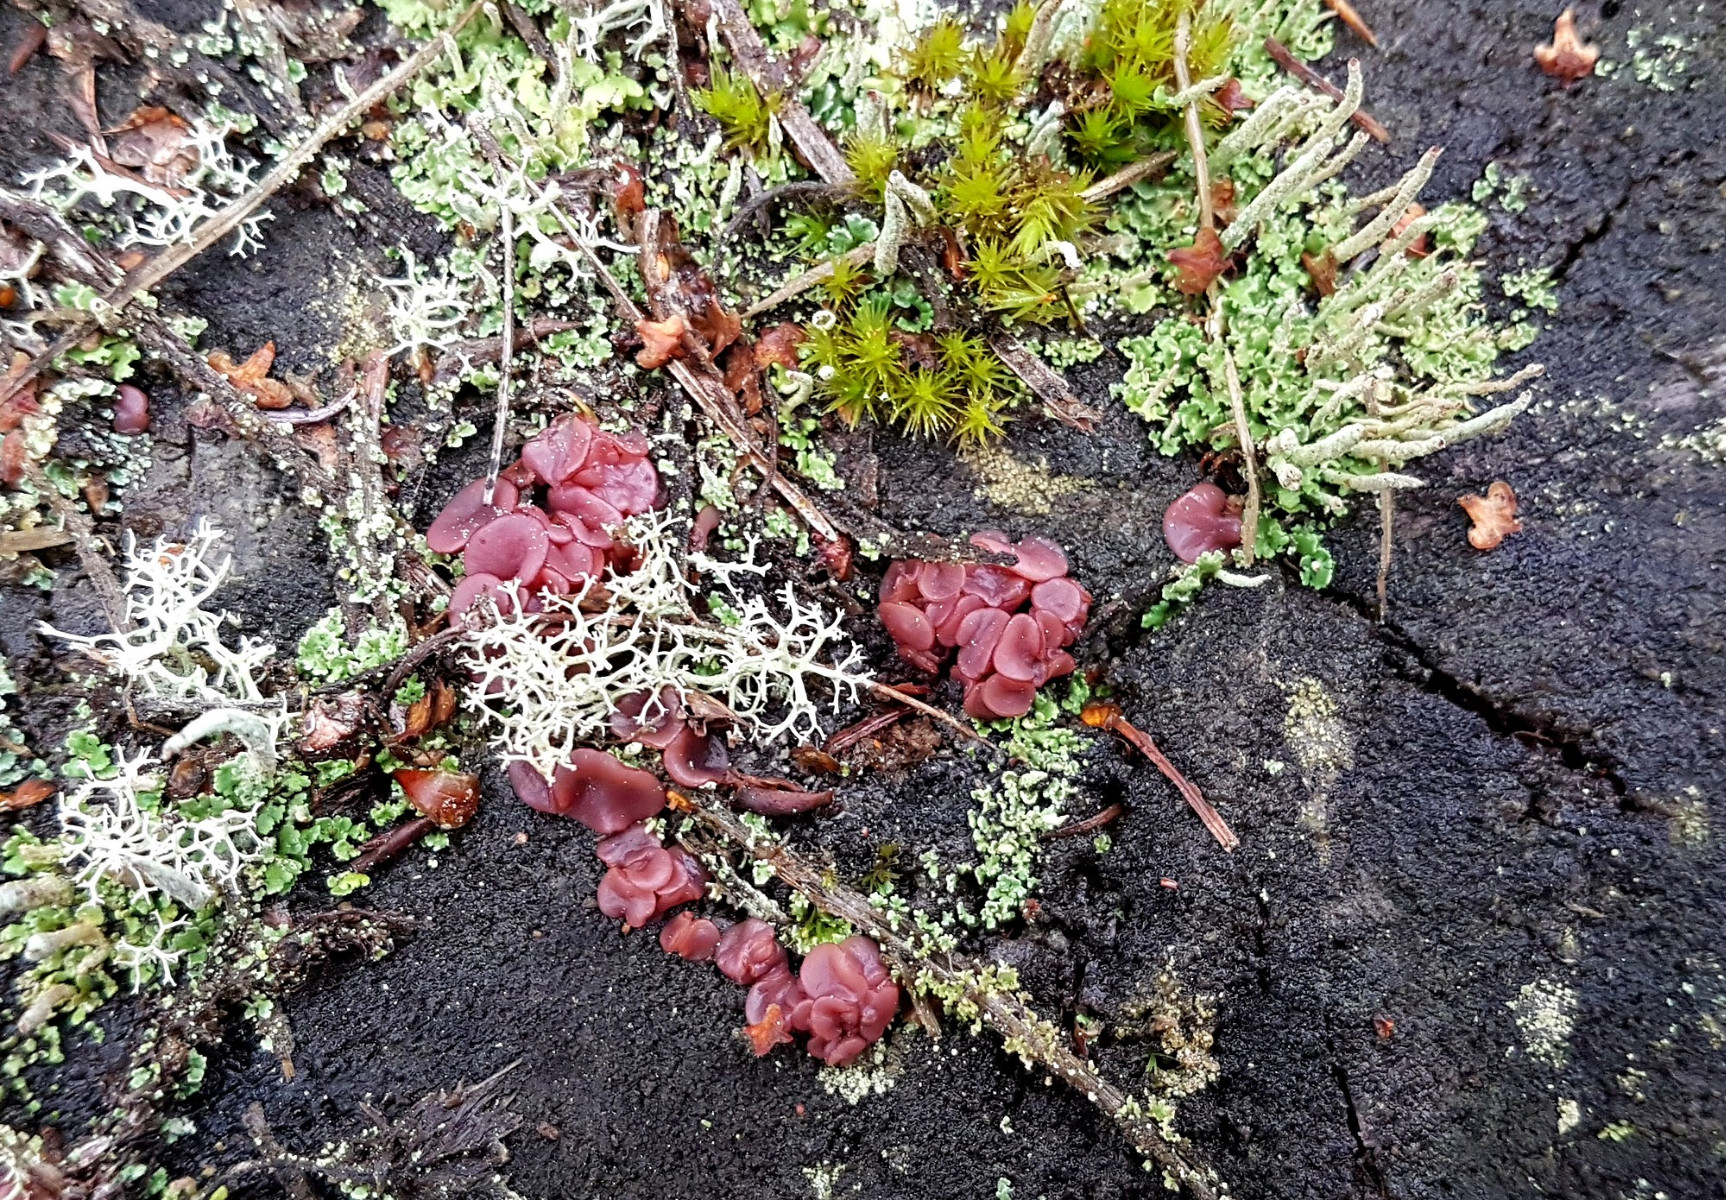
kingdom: Fungi
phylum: Ascomycota
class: Leotiomycetes
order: Helotiales
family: Gelatinodiscaceae
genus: Ascocoryne
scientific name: Ascocoryne cylichnium
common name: stor sejskive
